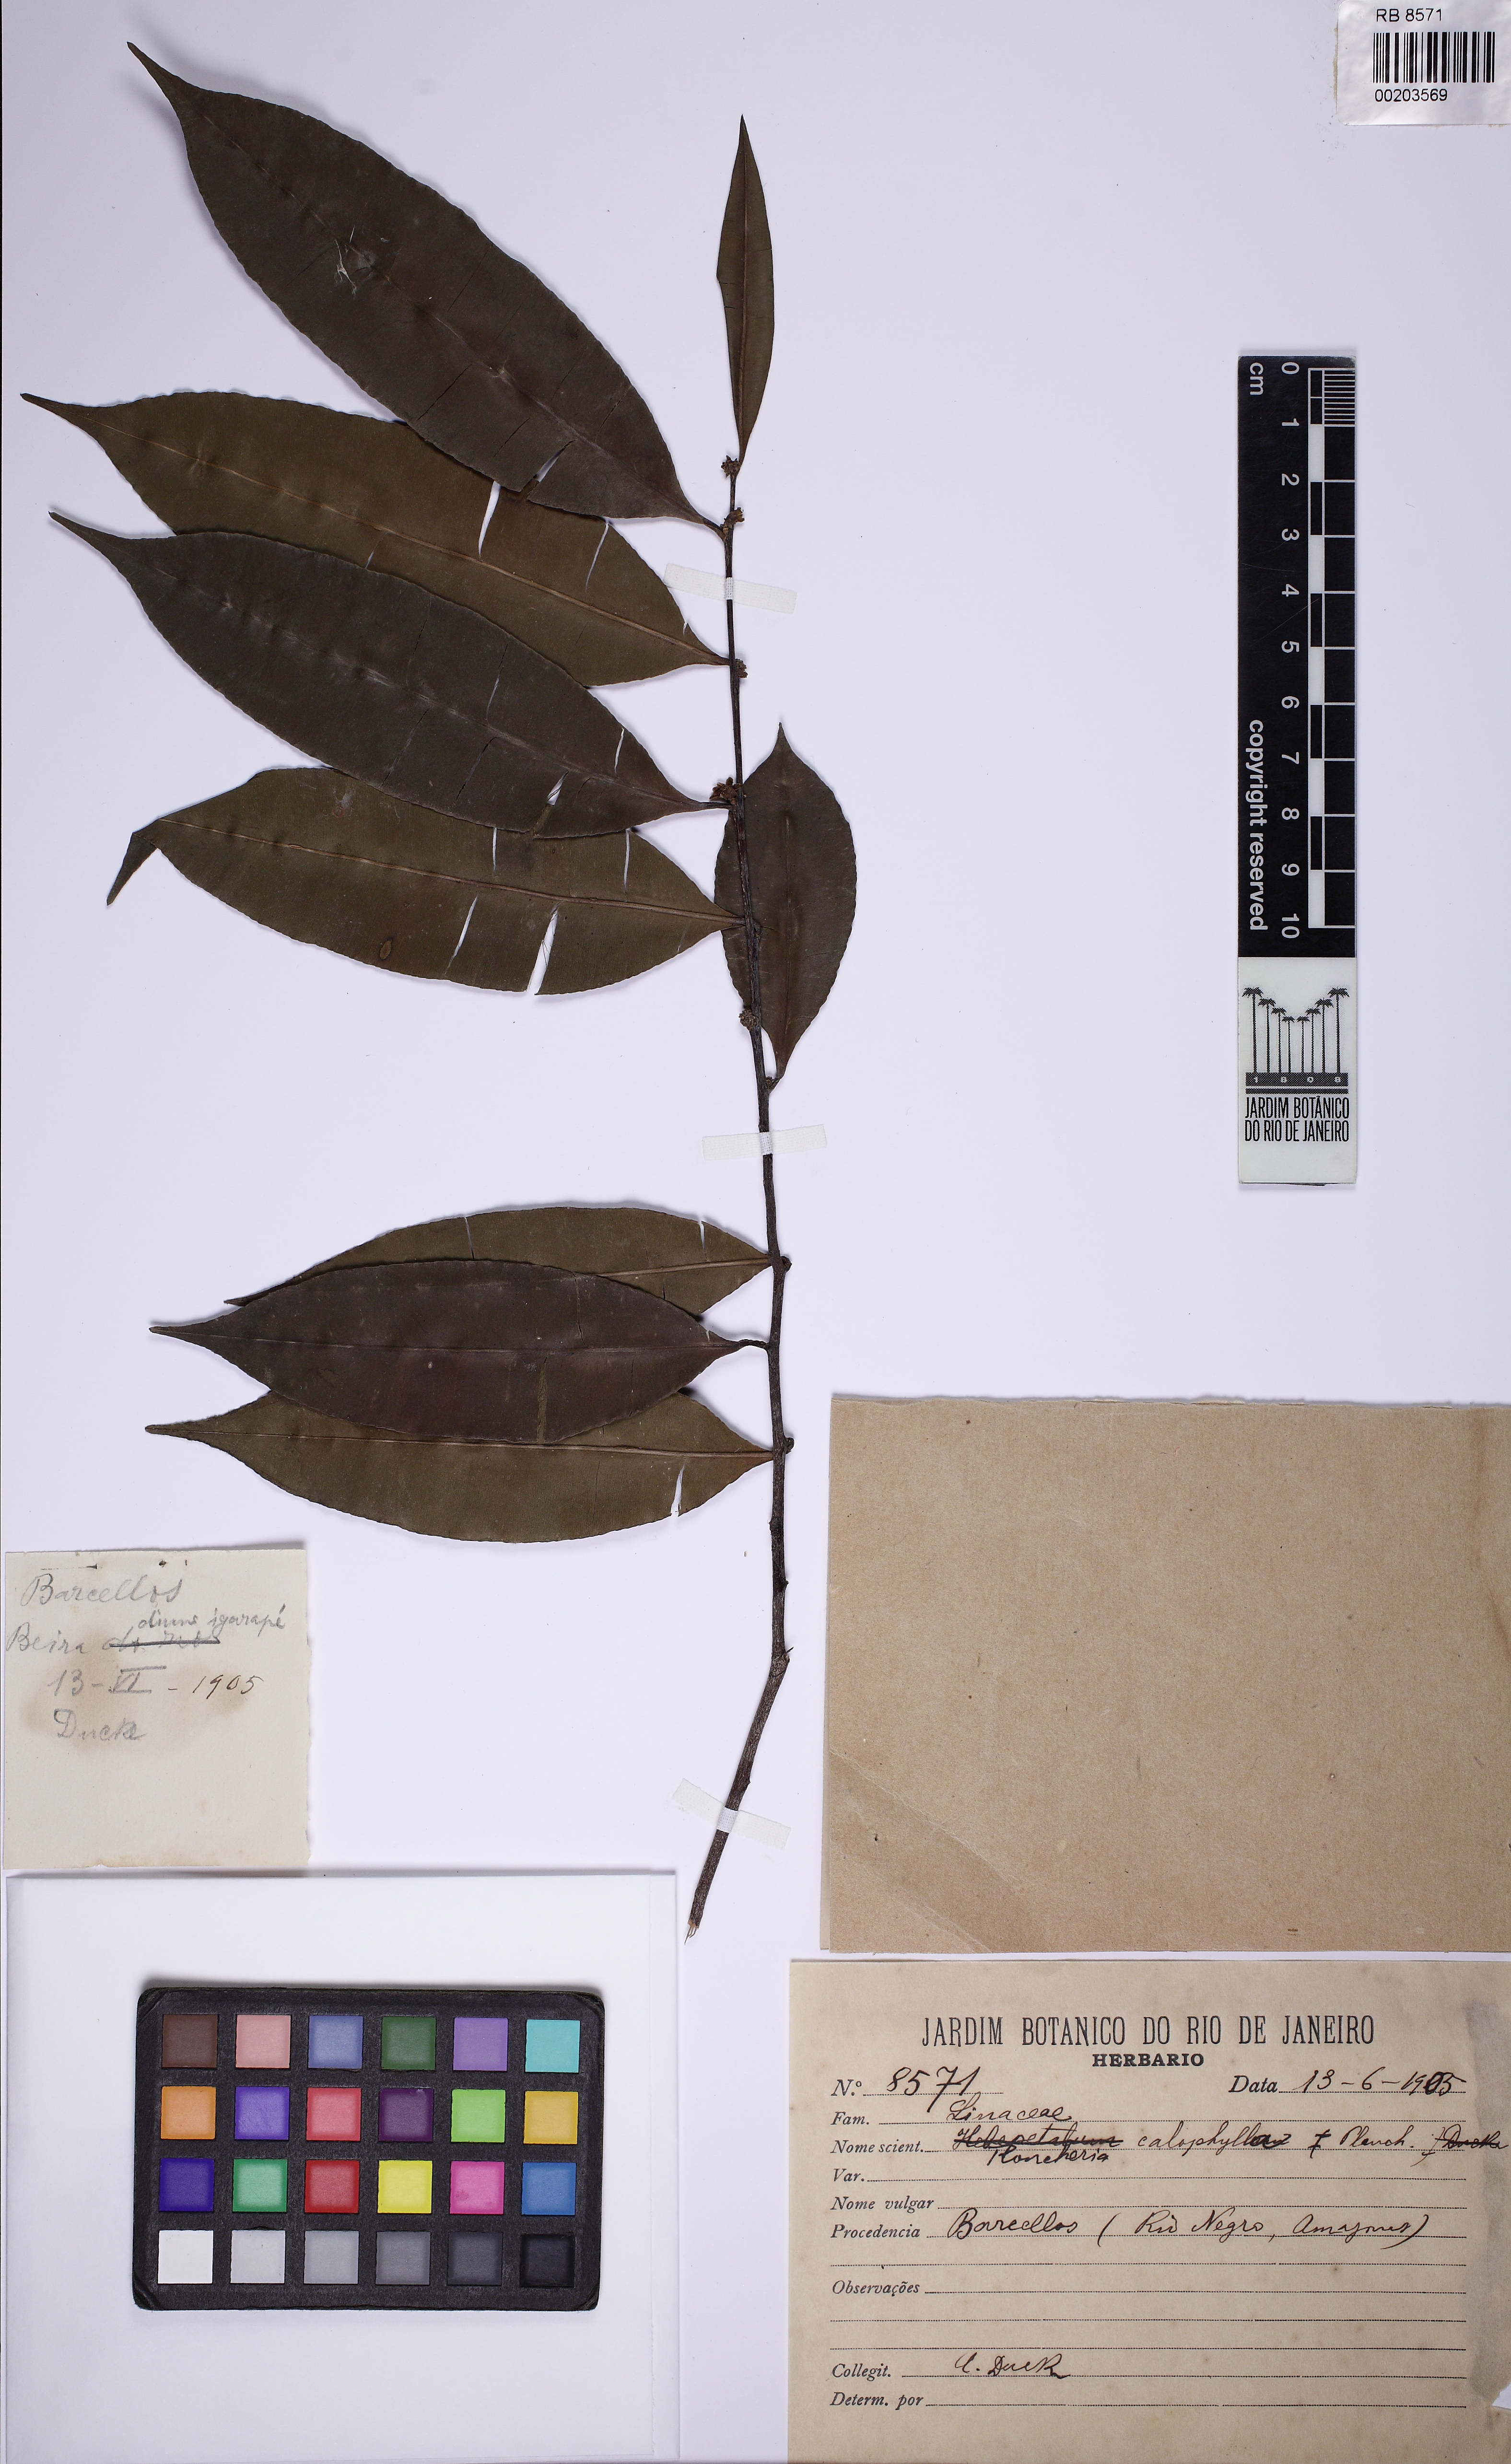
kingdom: Plantae
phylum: Tracheophyta
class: Magnoliopsida
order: Malpighiales
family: Linaceae
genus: Roucheria
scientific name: Roucheria calophylla
